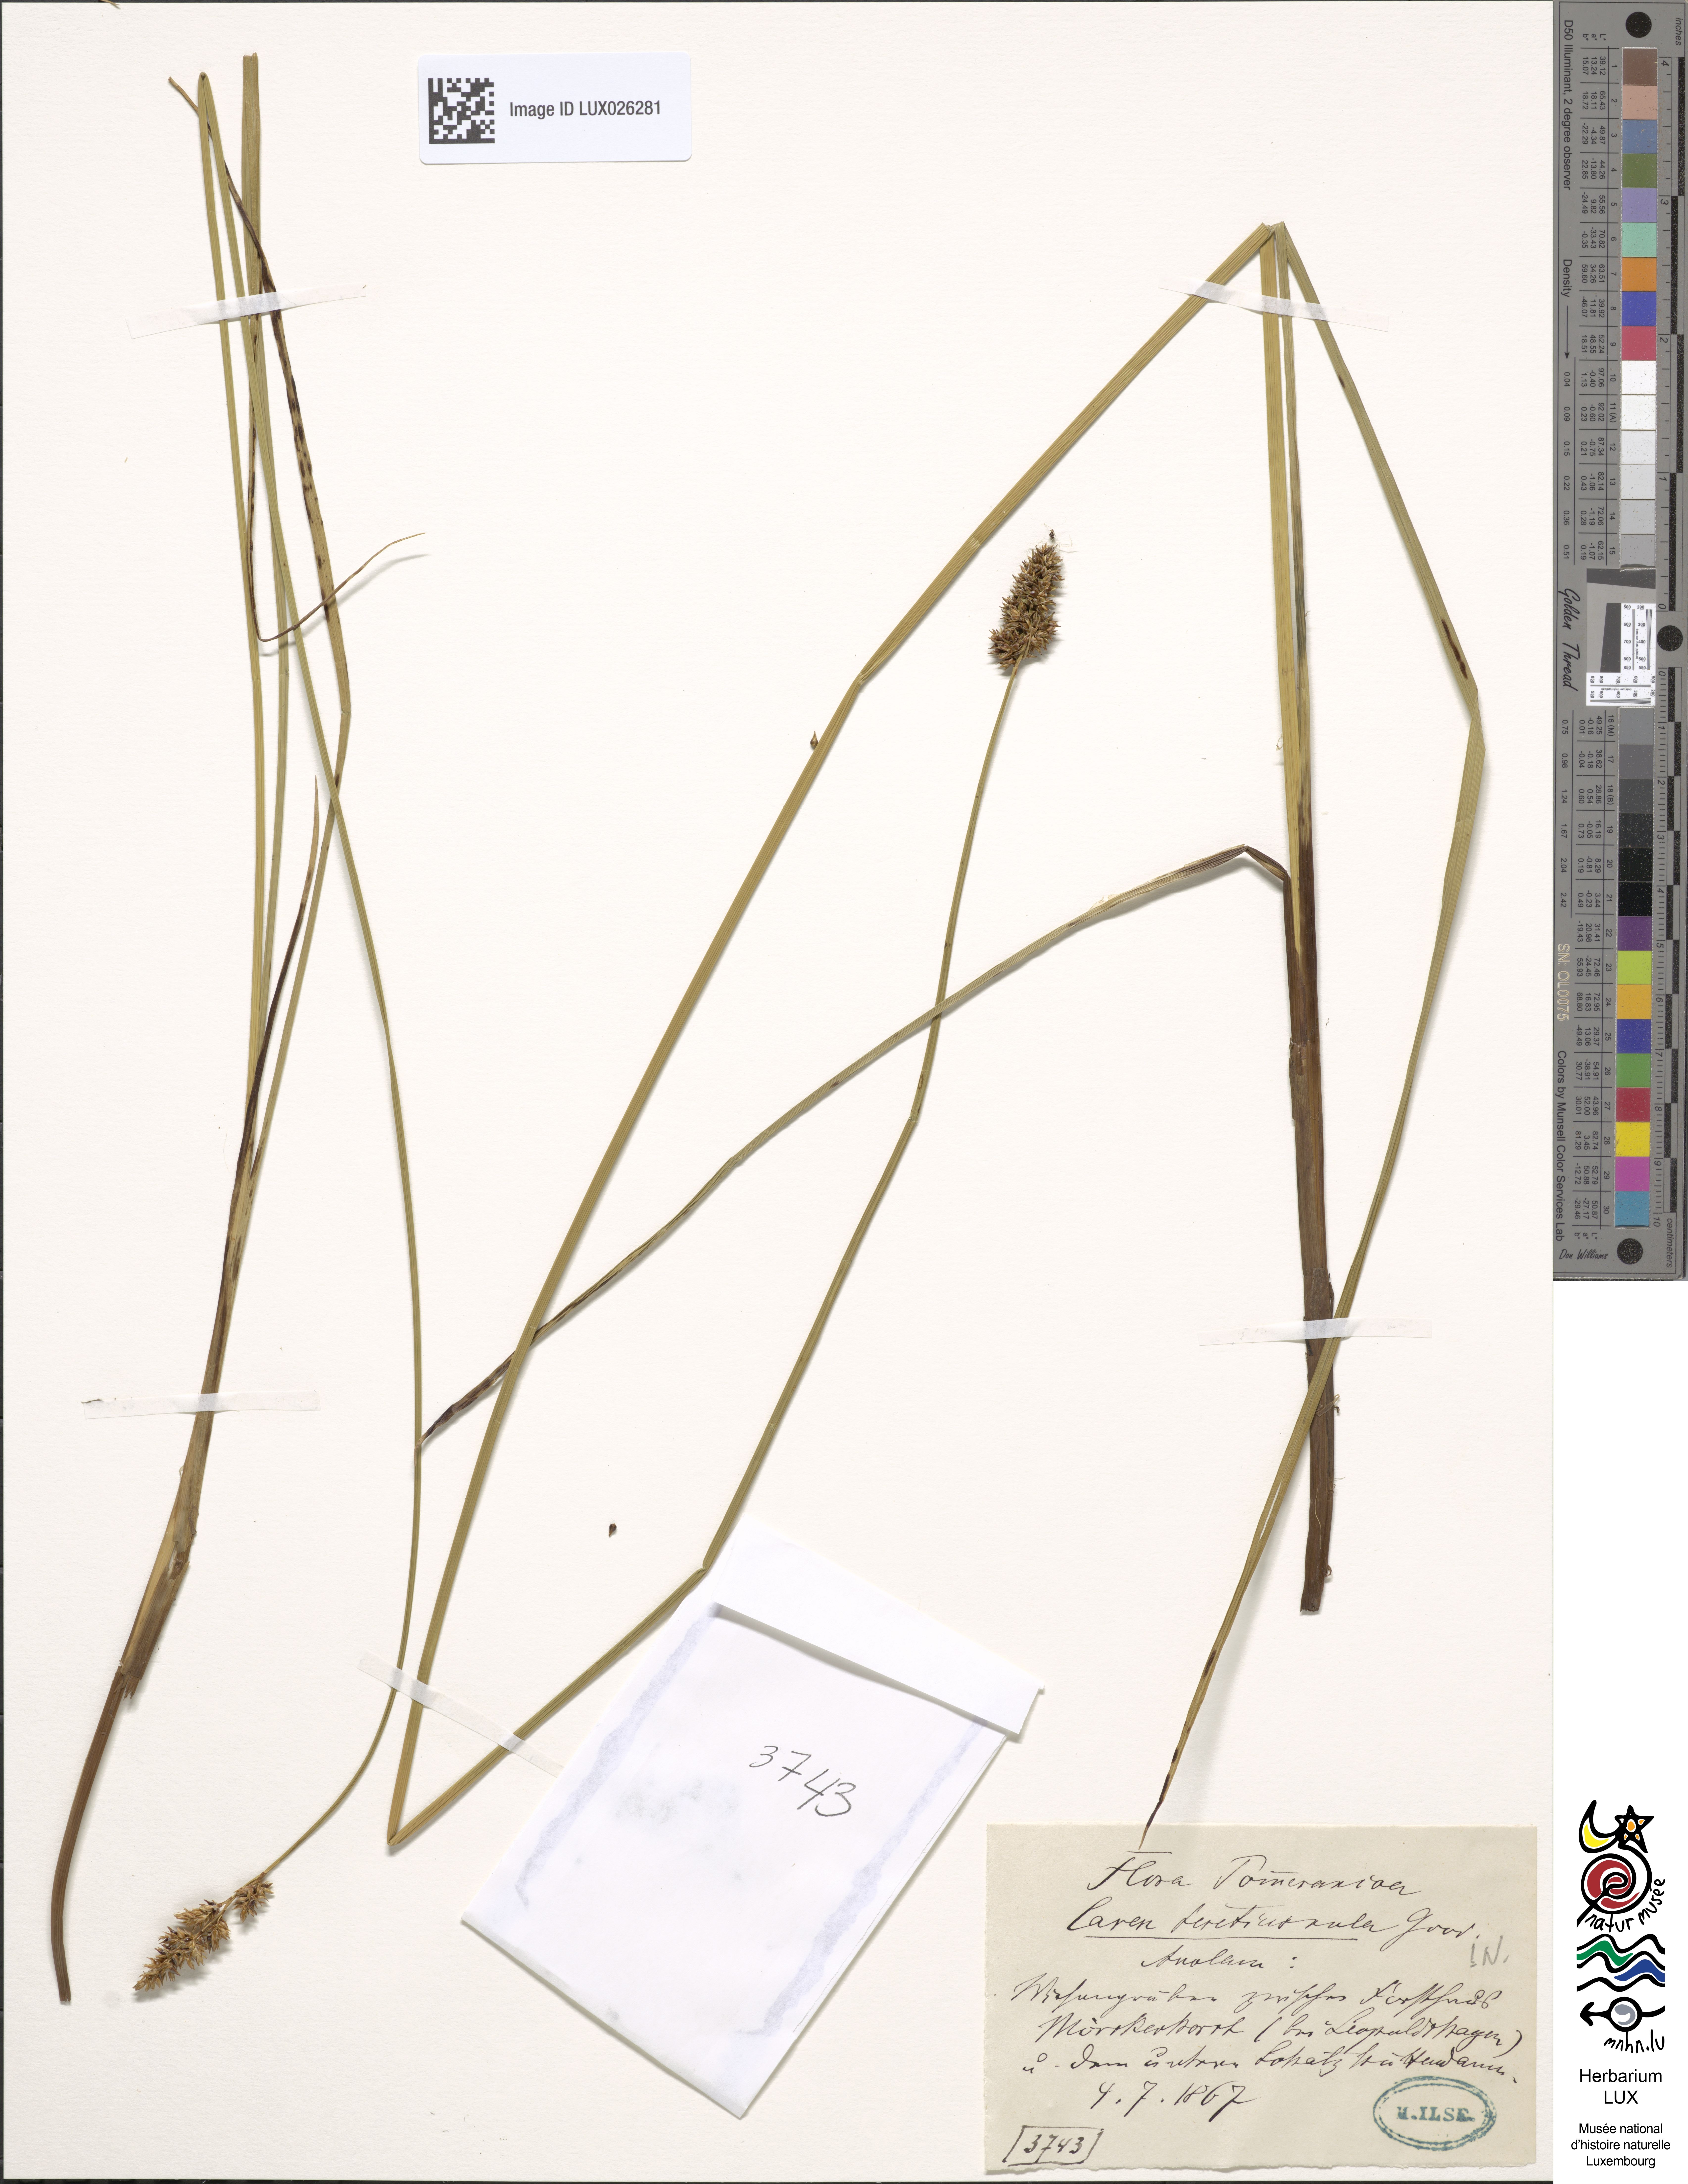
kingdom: Plantae
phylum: Tracheophyta
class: Liliopsida
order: Poales
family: Cyperaceae
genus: Carex
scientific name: Carex diandra
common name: Lesser tussock-sedge
